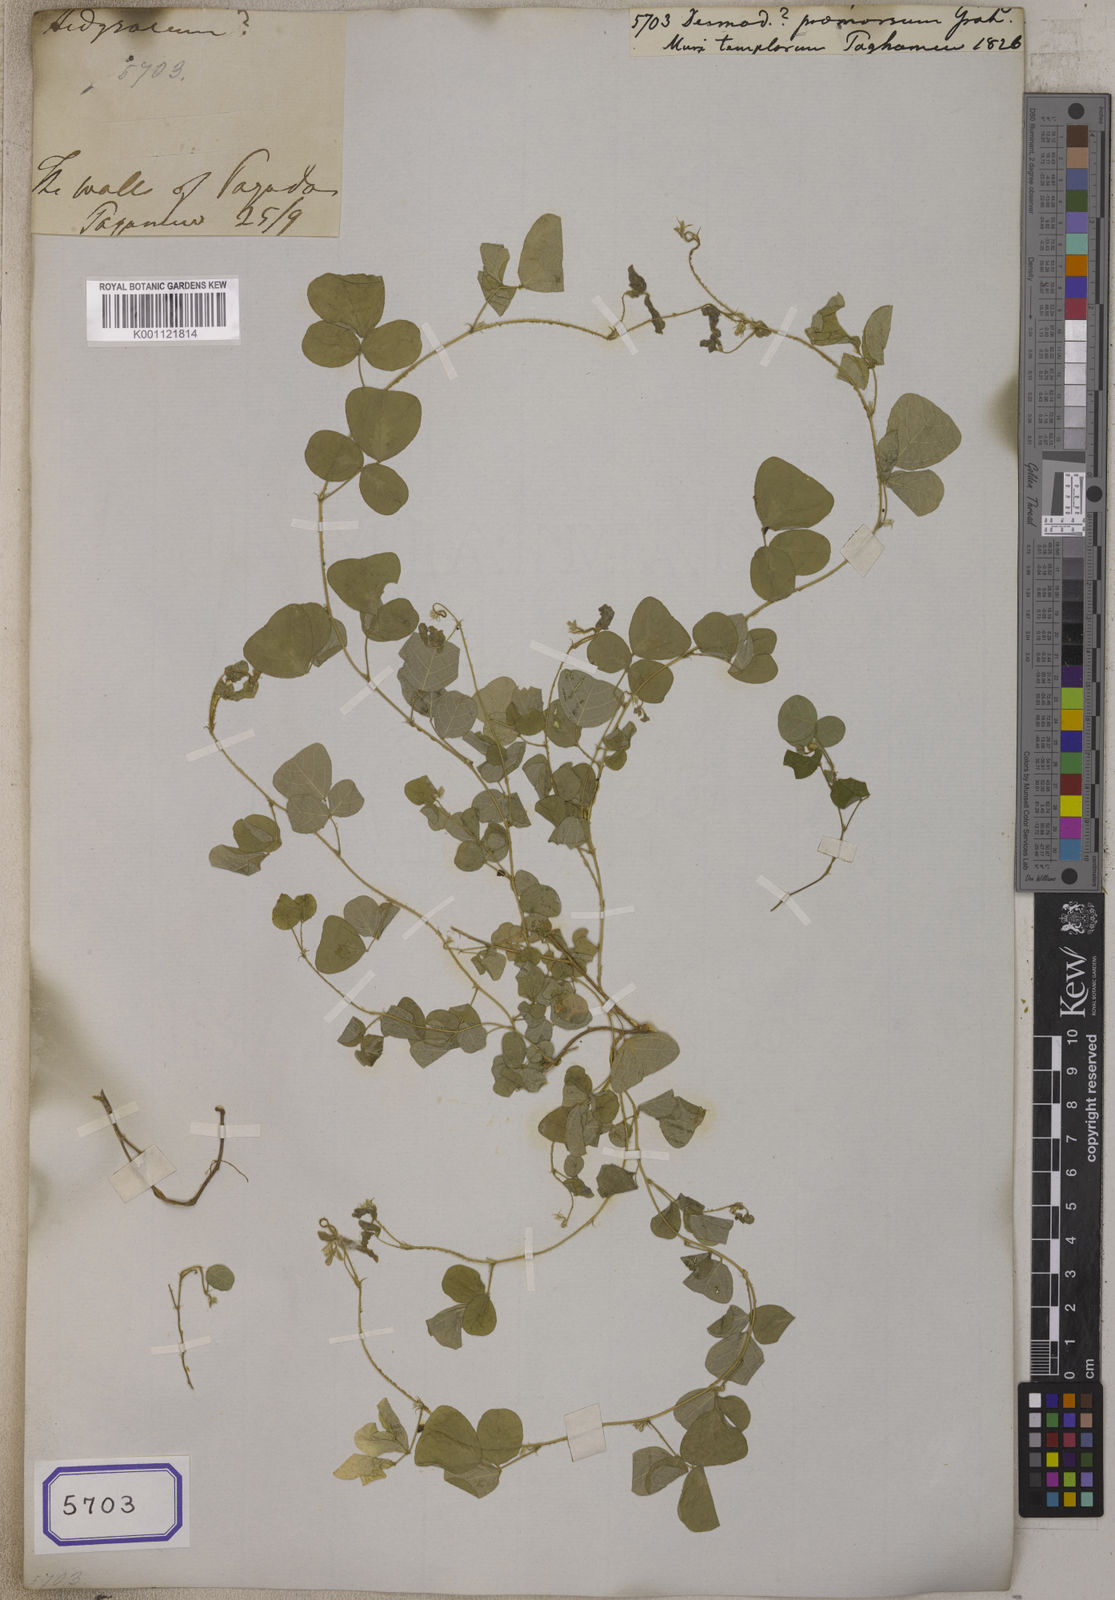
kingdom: Plantae
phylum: Tracheophyta
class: Magnoliopsida
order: Fabales
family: Fabaceae
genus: Desmodium
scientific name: Desmodium
